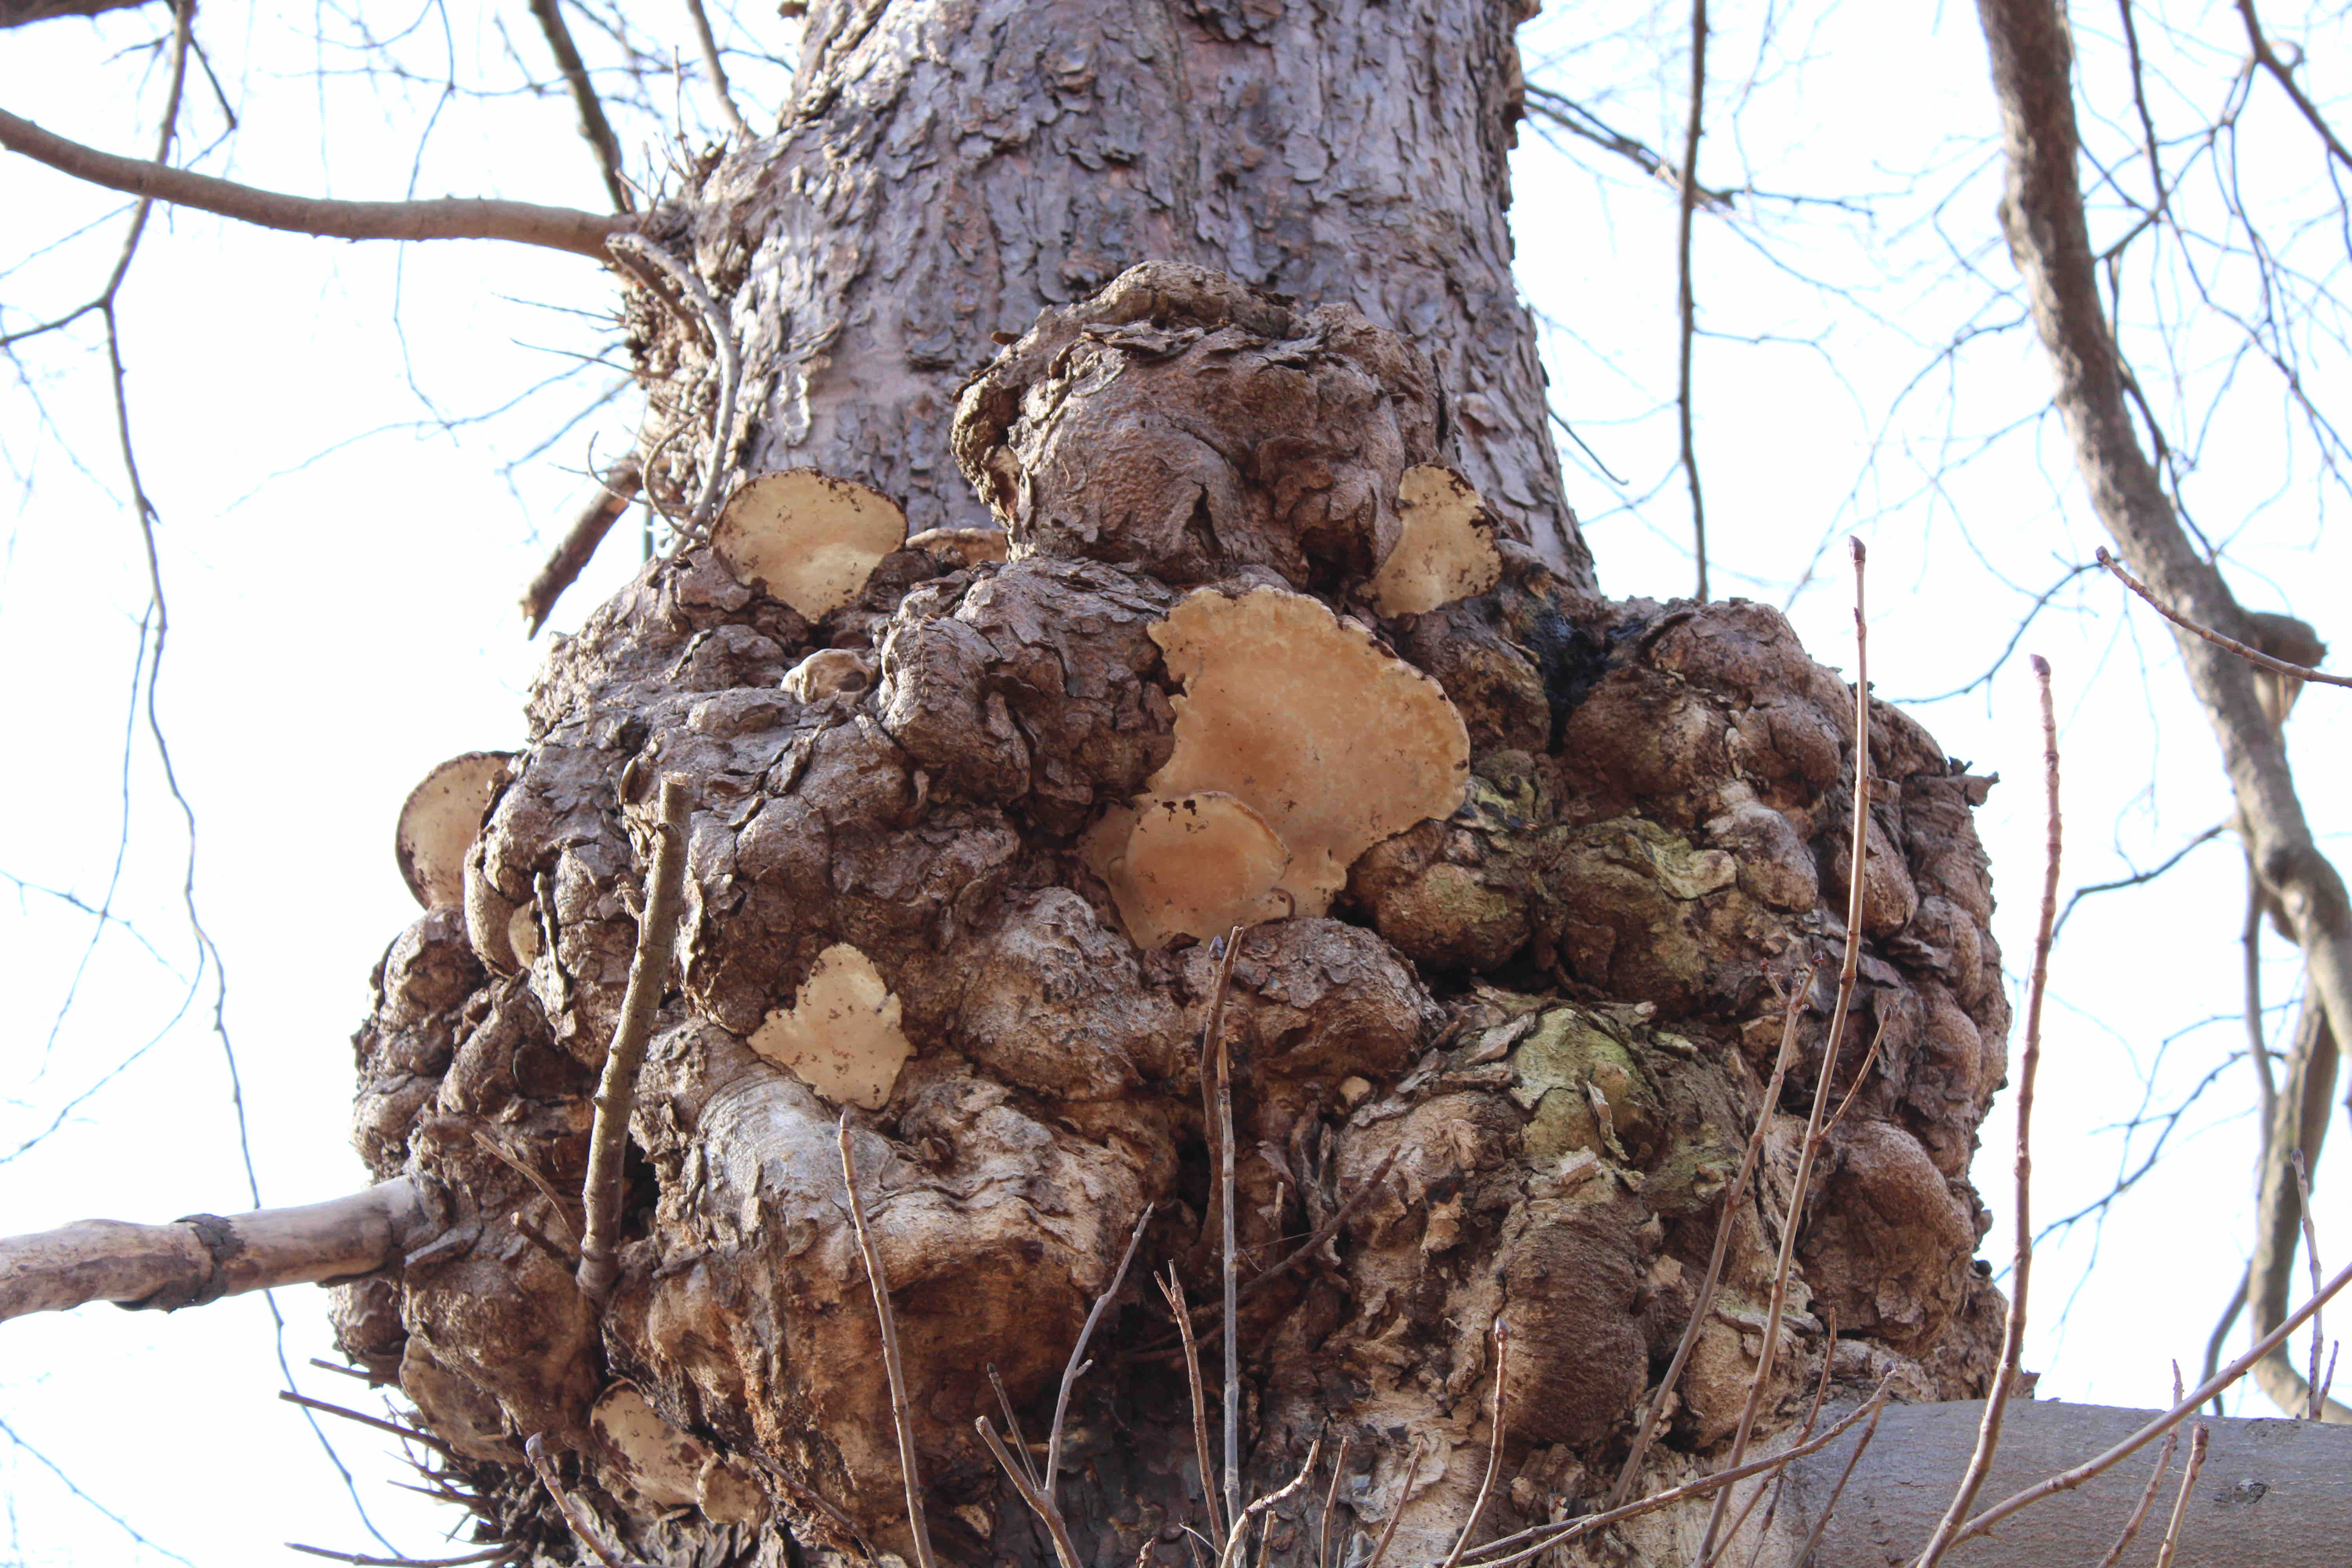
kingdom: Fungi
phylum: Basidiomycota
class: Agaricomycetes
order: Polyporales
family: Polyporaceae
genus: Ganoderma
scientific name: Ganoderma
